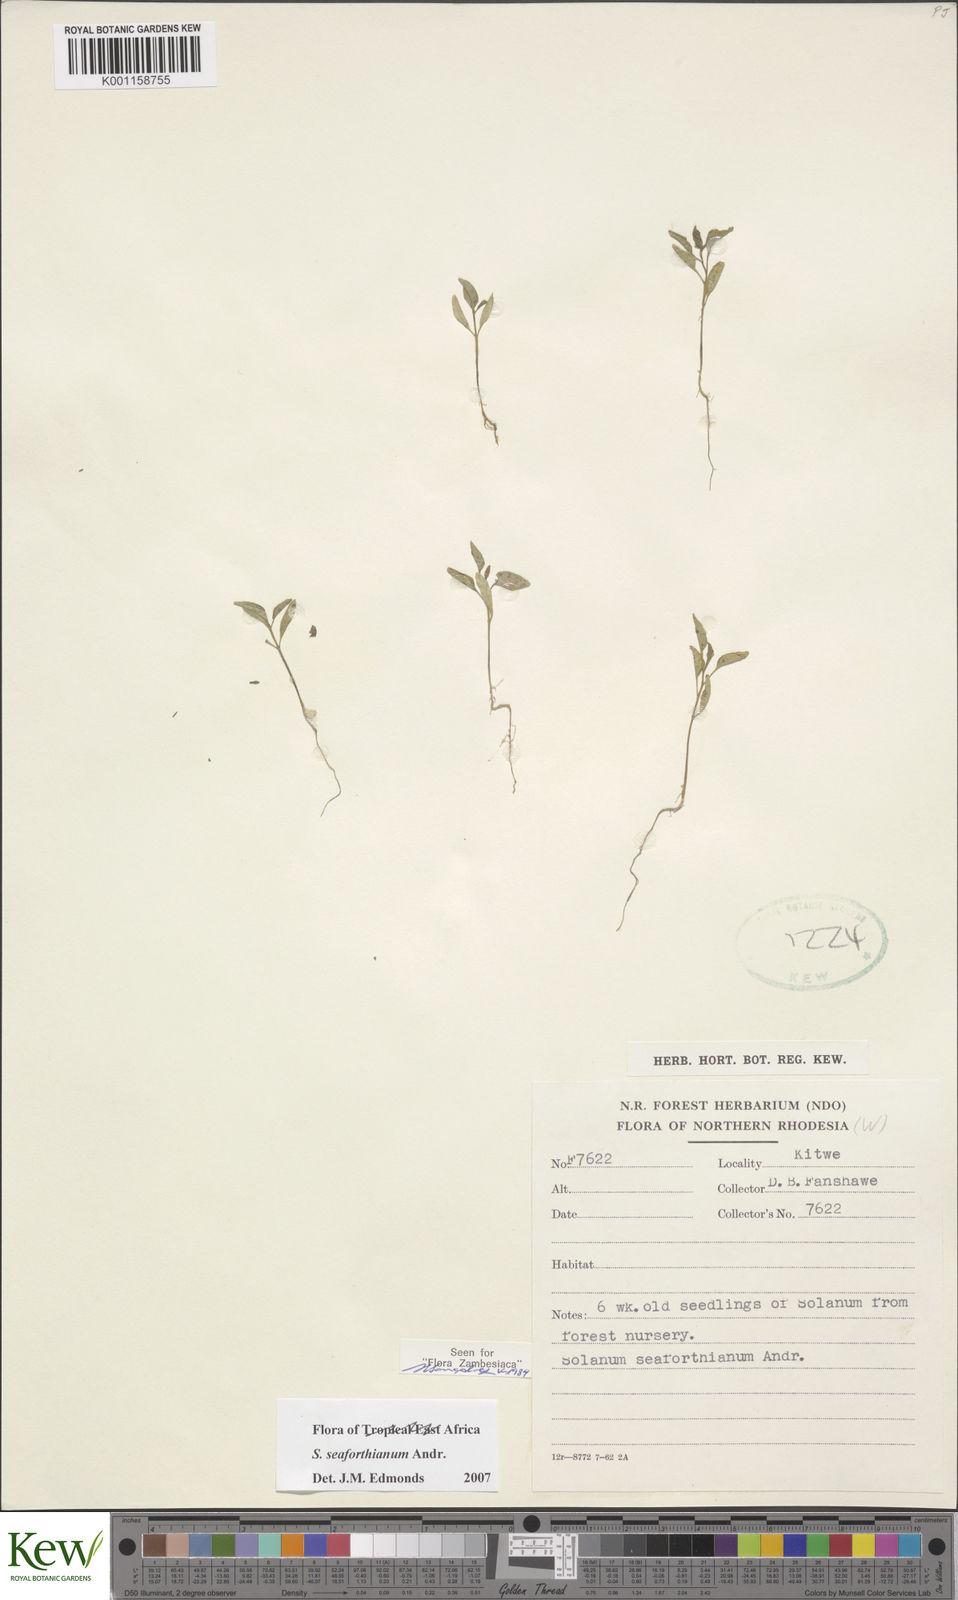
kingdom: Plantae
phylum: Tracheophyta
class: Magnoliopsida
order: Solanales
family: Solanaceae
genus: Solanum
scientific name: Solanum seaforthianum
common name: Brazilian nightshade
